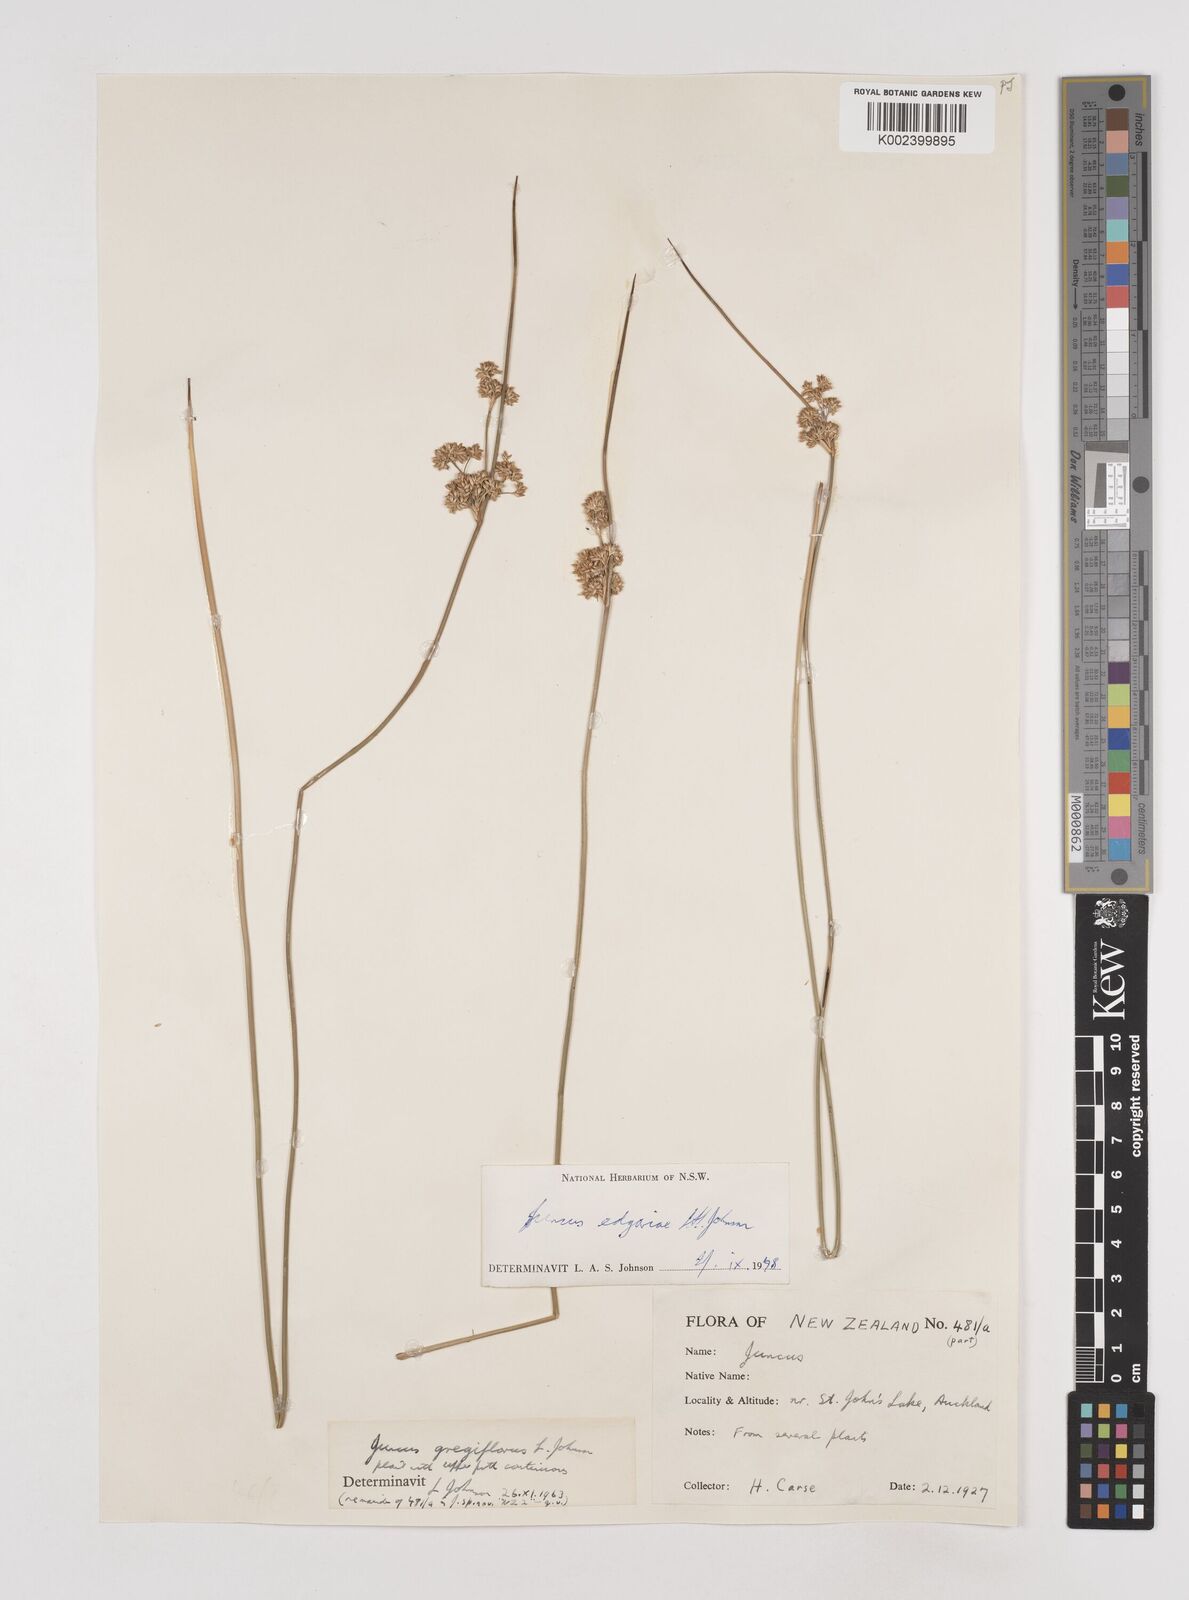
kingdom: Plantae
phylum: Tracheophyta
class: Liliopsida
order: Poales
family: Juncaceae
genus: Juncus
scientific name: Juncus edgariae
